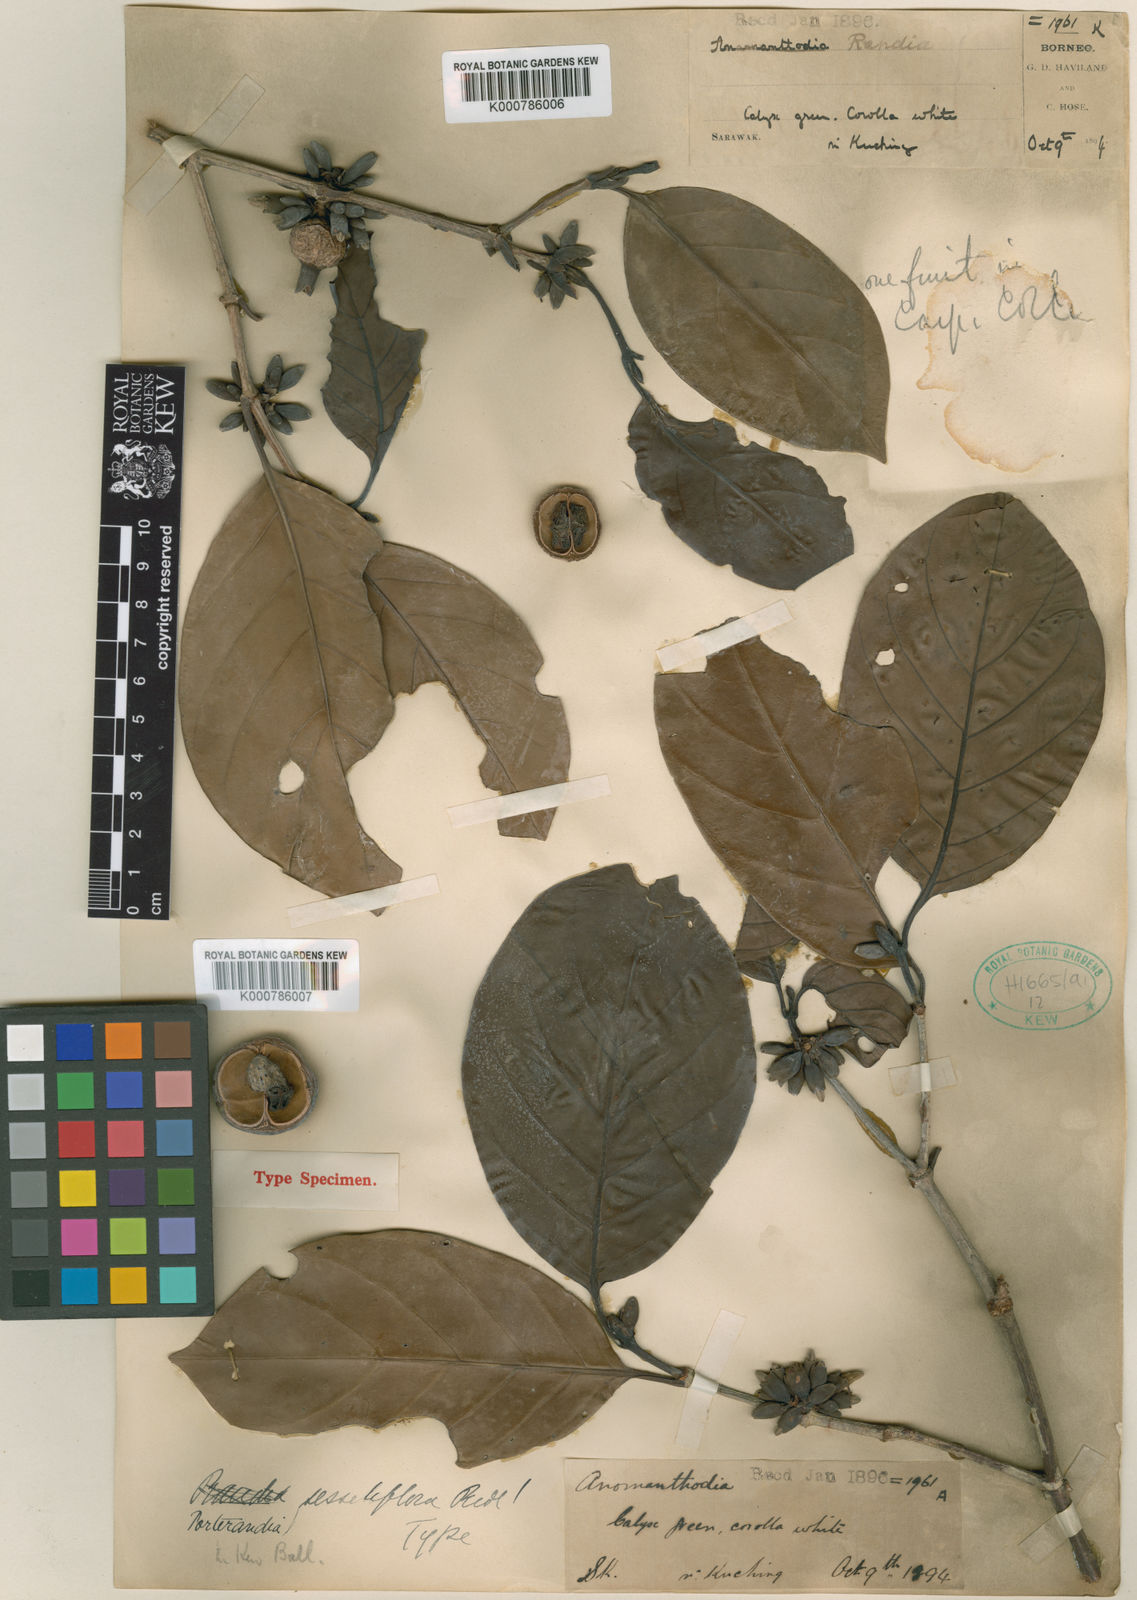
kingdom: Plantae
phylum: Tracheophyta
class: Magnoliopsida
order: Gentianales
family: Rubiaceae
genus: Bungarimba
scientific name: Bungarimba sessiliflora
